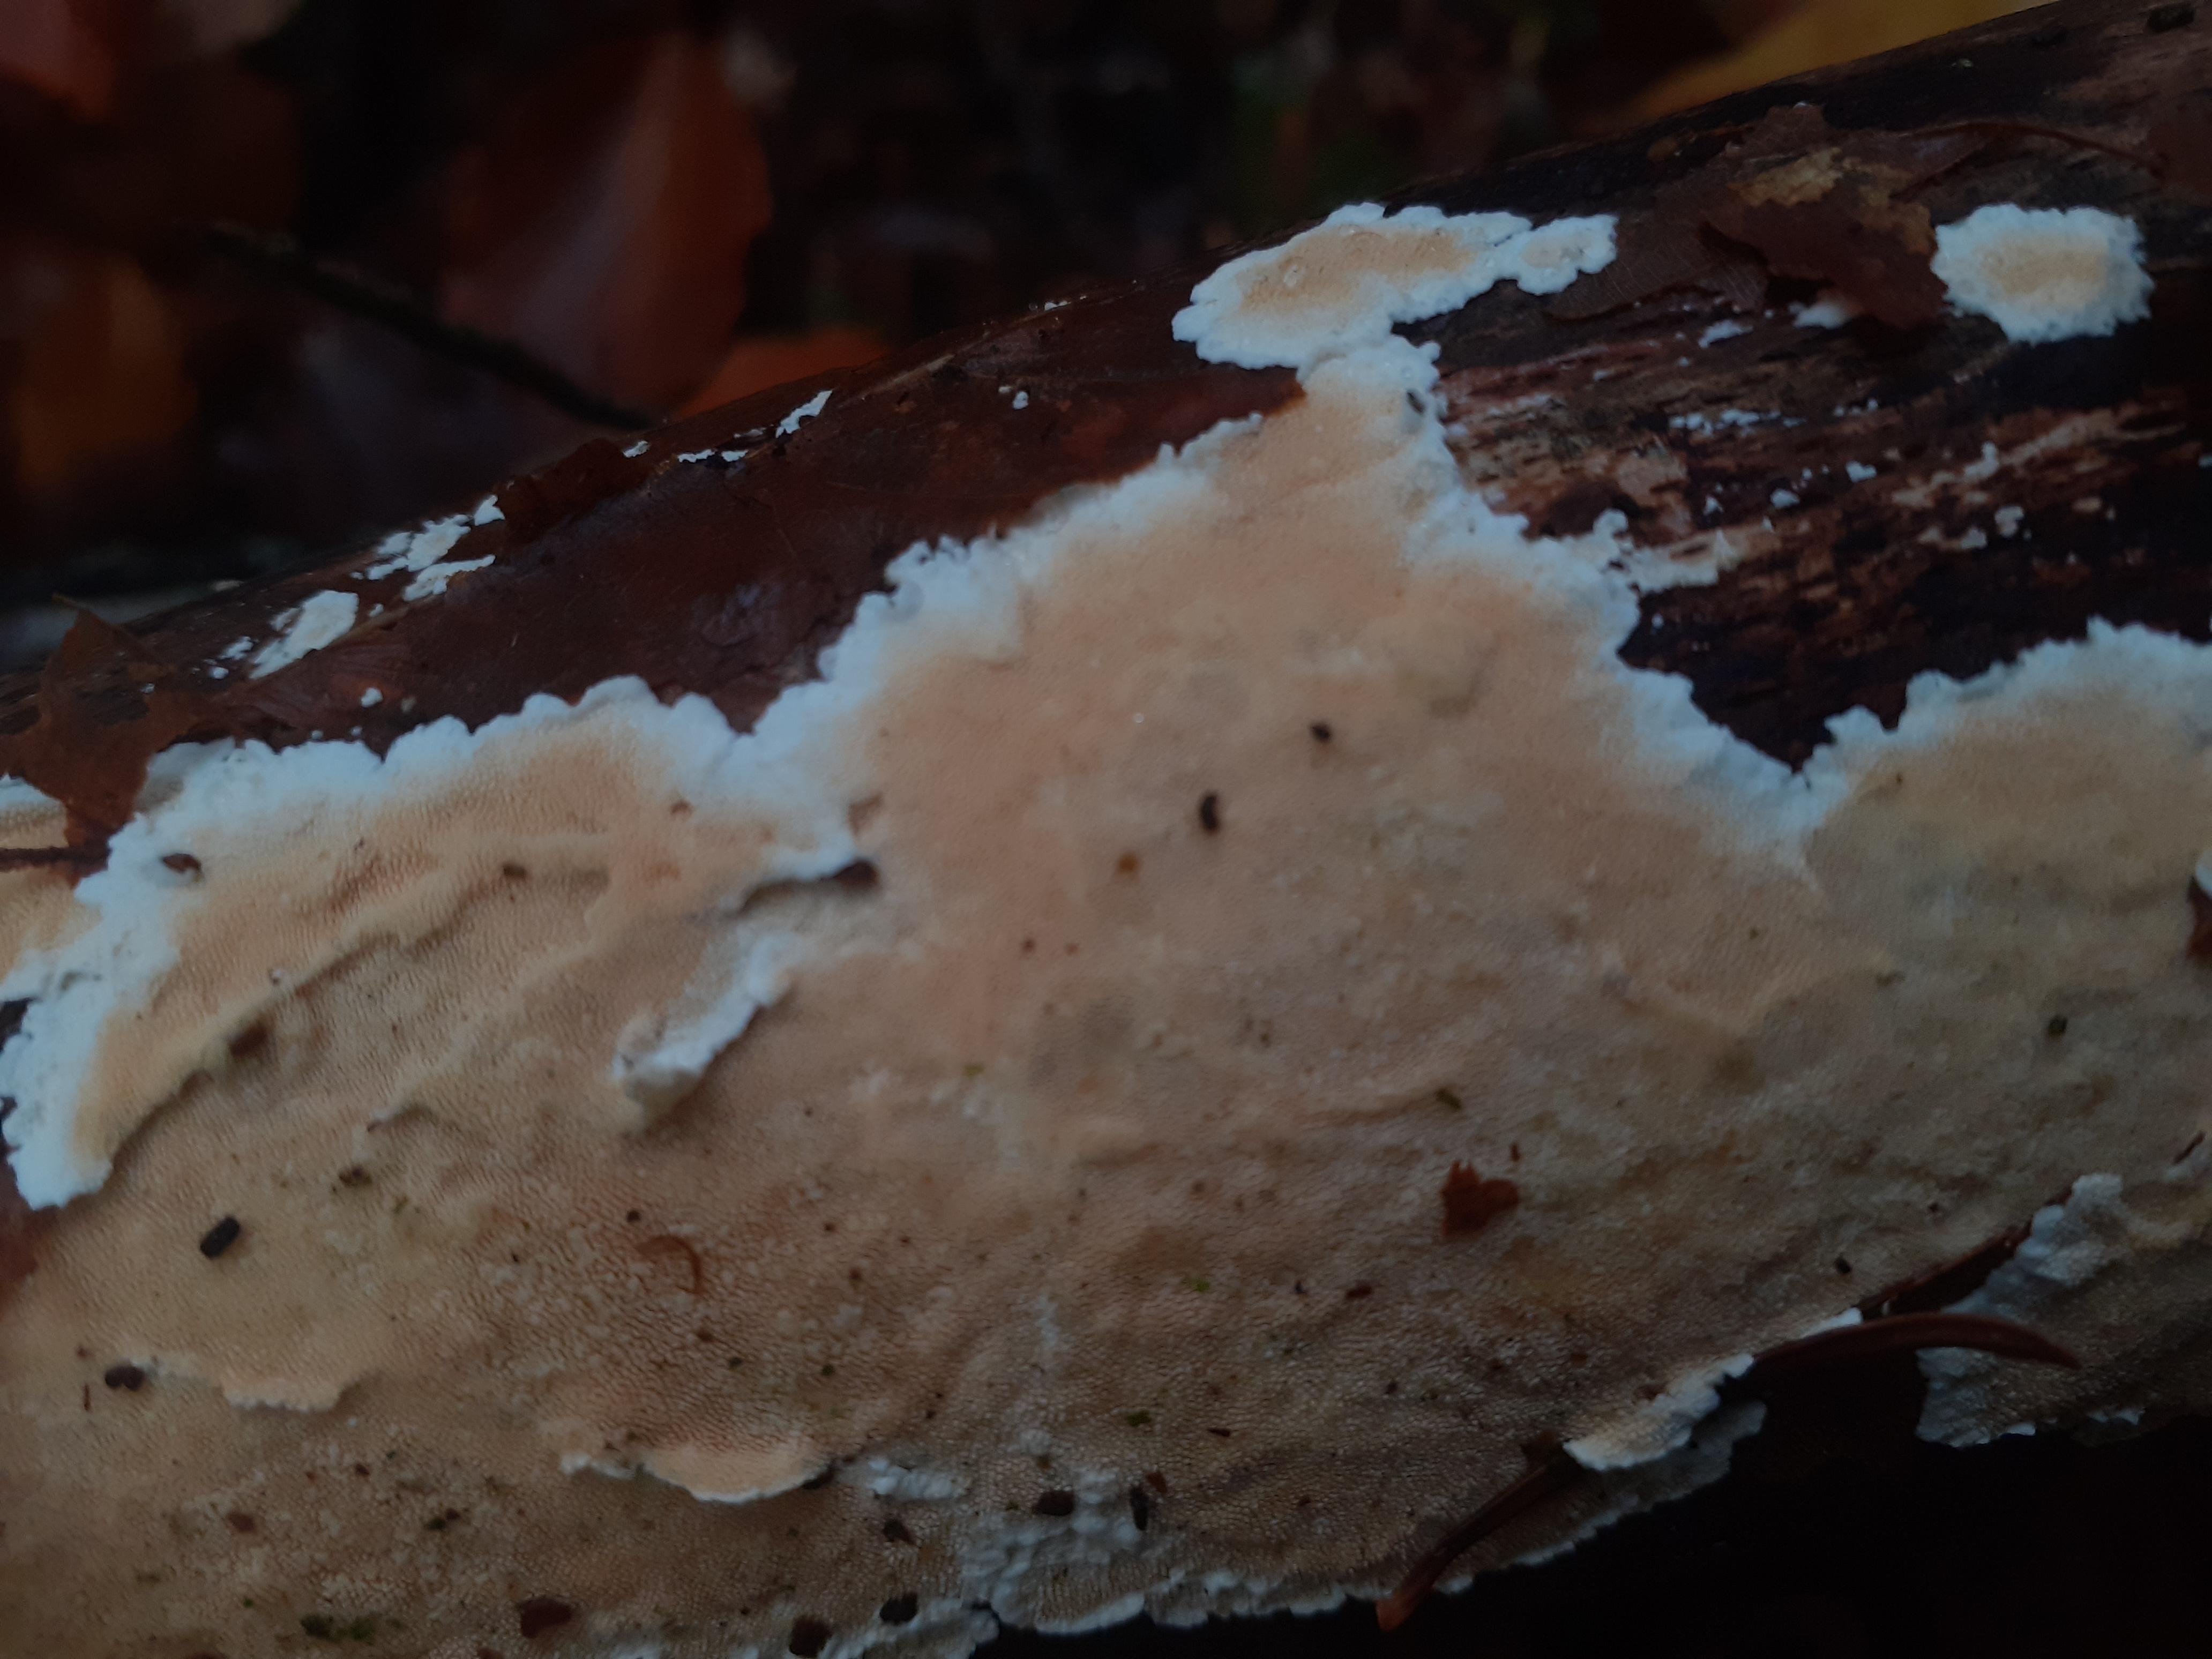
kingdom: Fungi
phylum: Basidiomycota
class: Agaricomycetes
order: Polyporales
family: Steccherinaceae
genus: Steccherinum
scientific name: Steccherinum ochraceum
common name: almindelig skønpig
